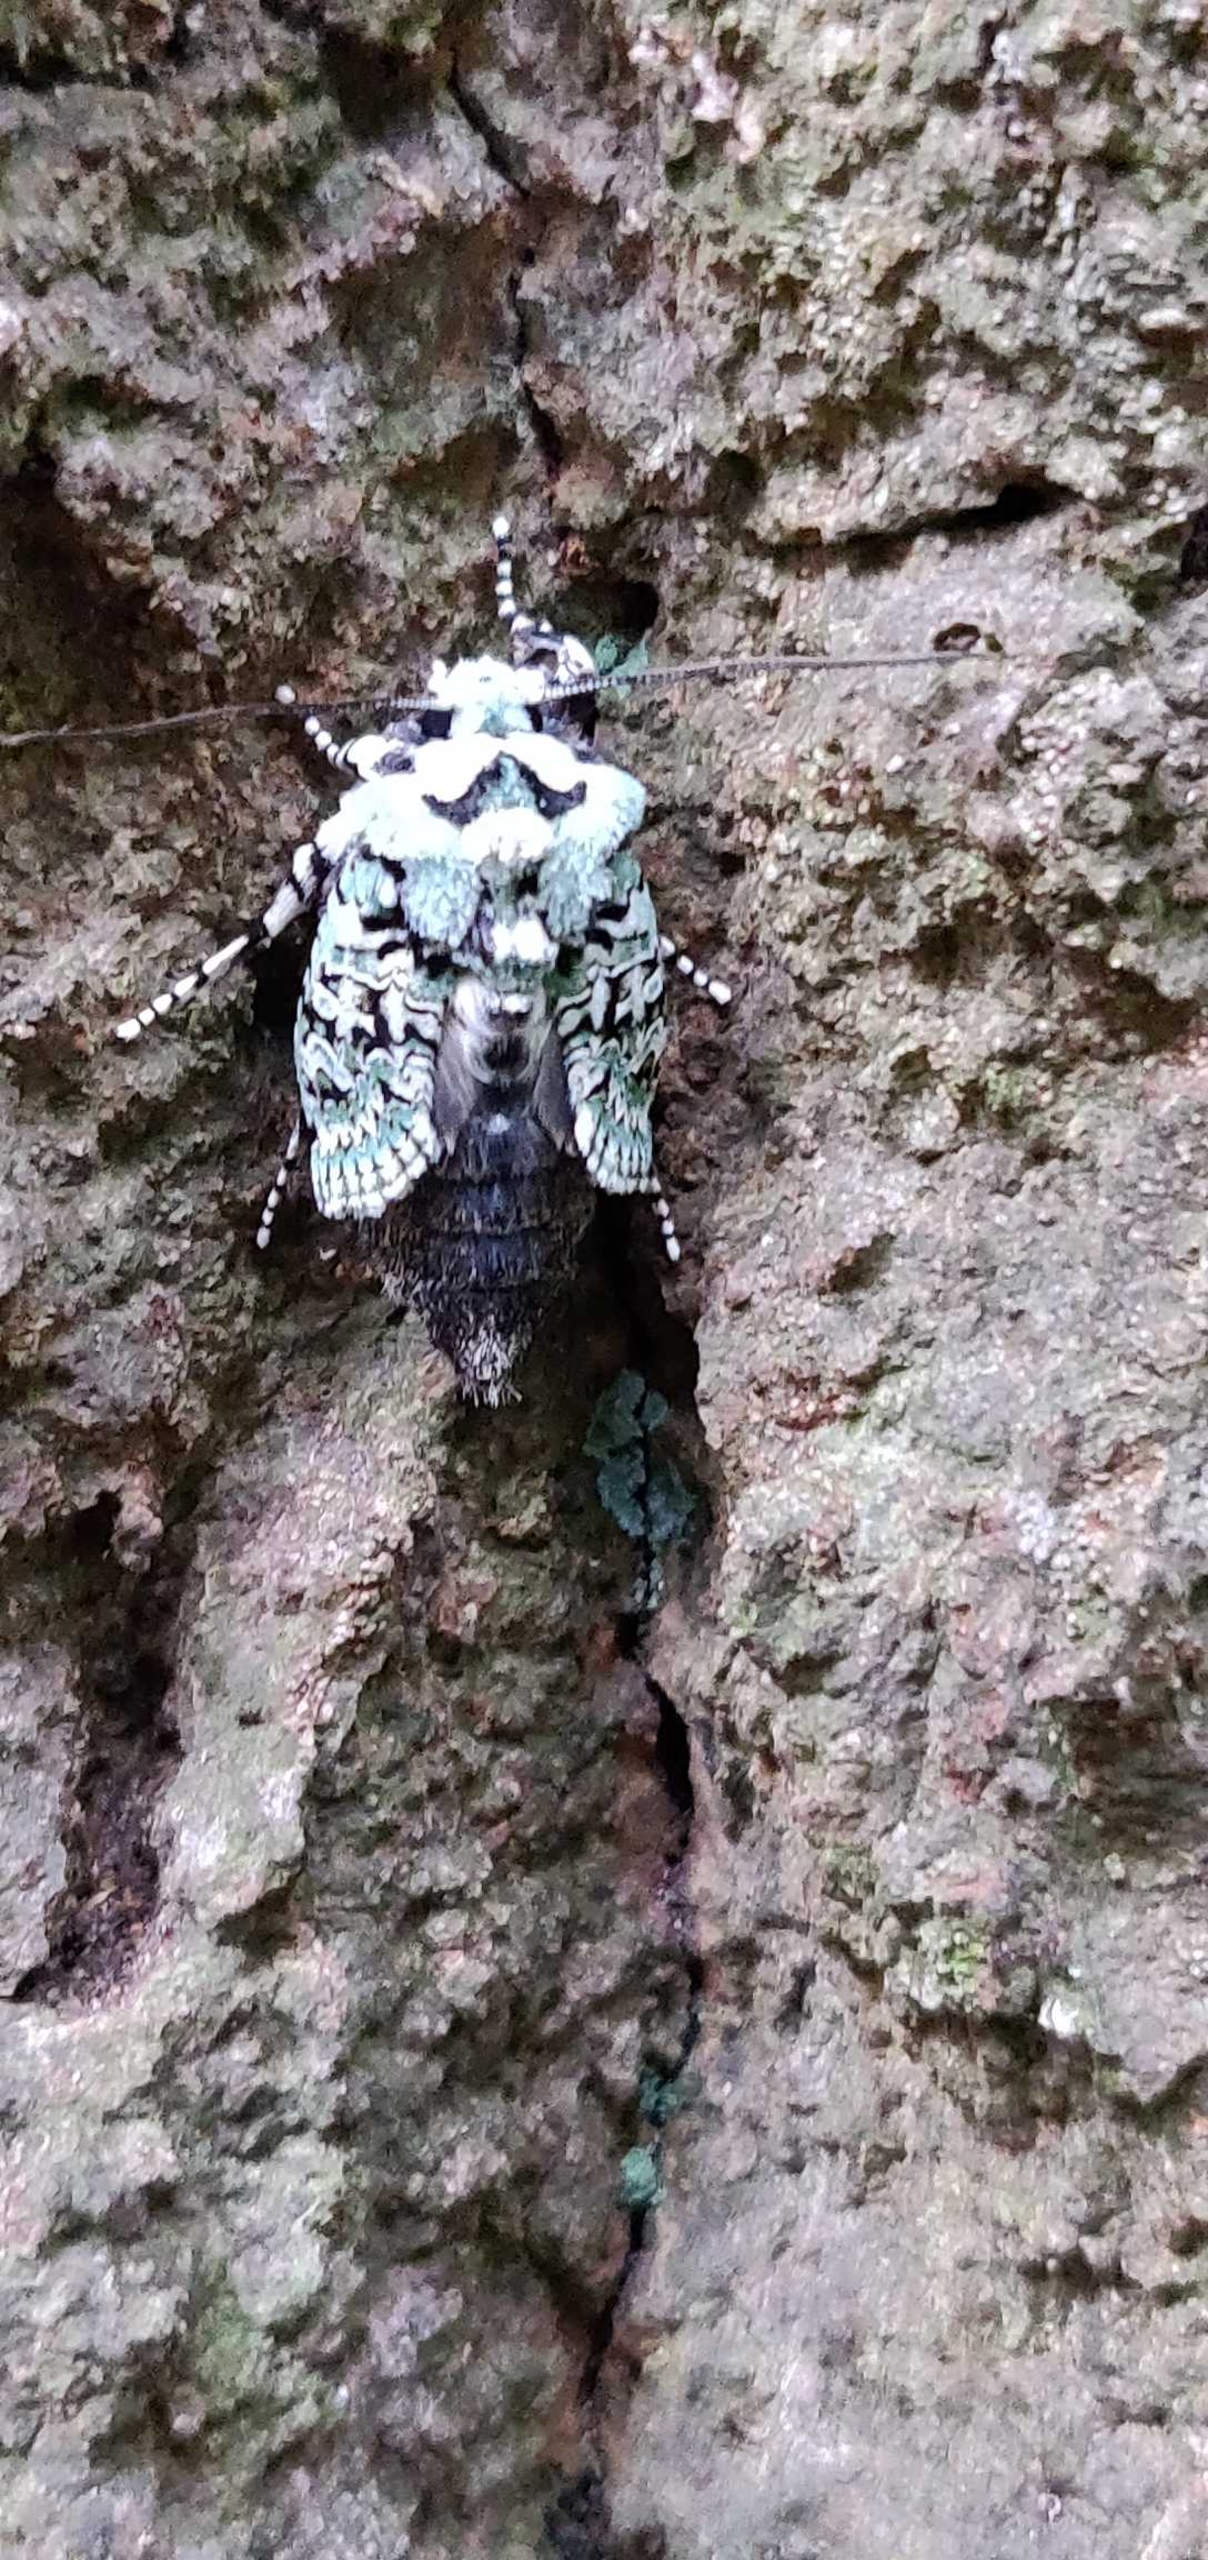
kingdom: Animalia
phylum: Arthropoda
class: Insecta
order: Lepidoptera
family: Noctuidae
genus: Griposia
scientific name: Griposia aprilina
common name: Aprilugle
